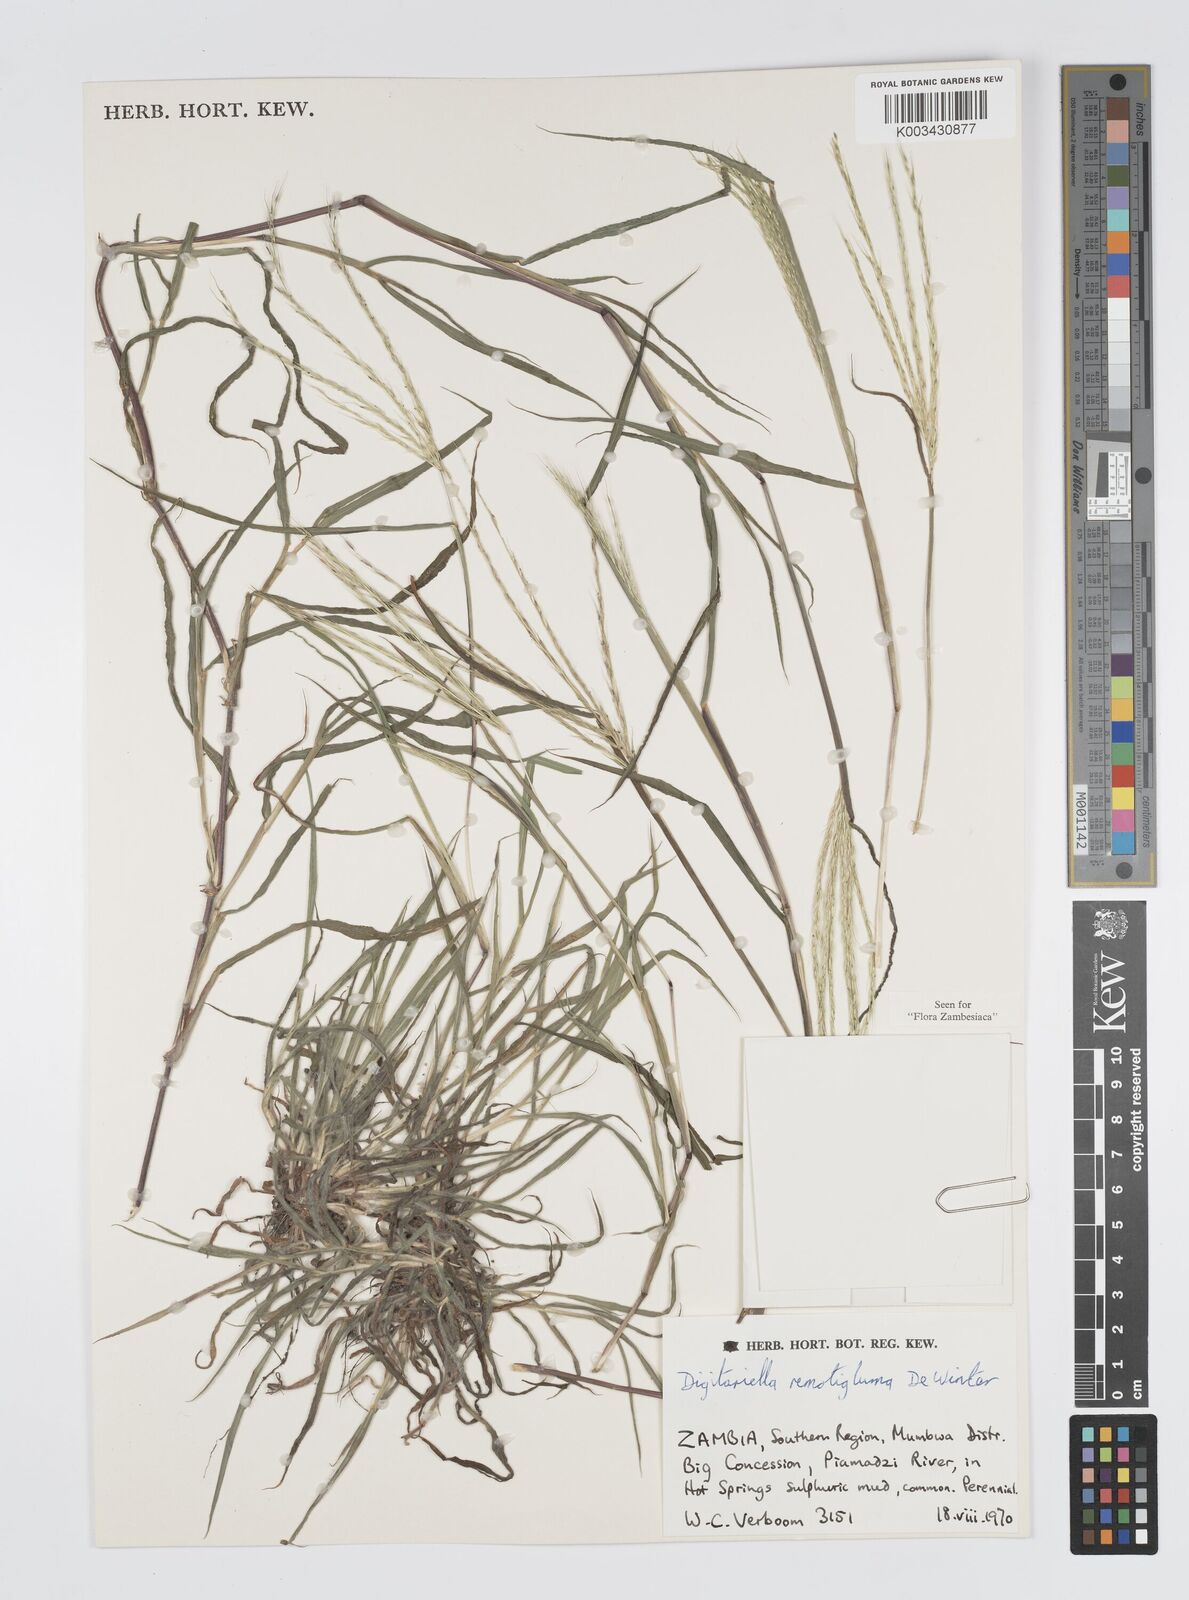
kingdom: Plantae
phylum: Tracheophyta
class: Liliopsida
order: Poales
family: Poaceae
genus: Digitaria
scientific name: Digitaria remotigluma
